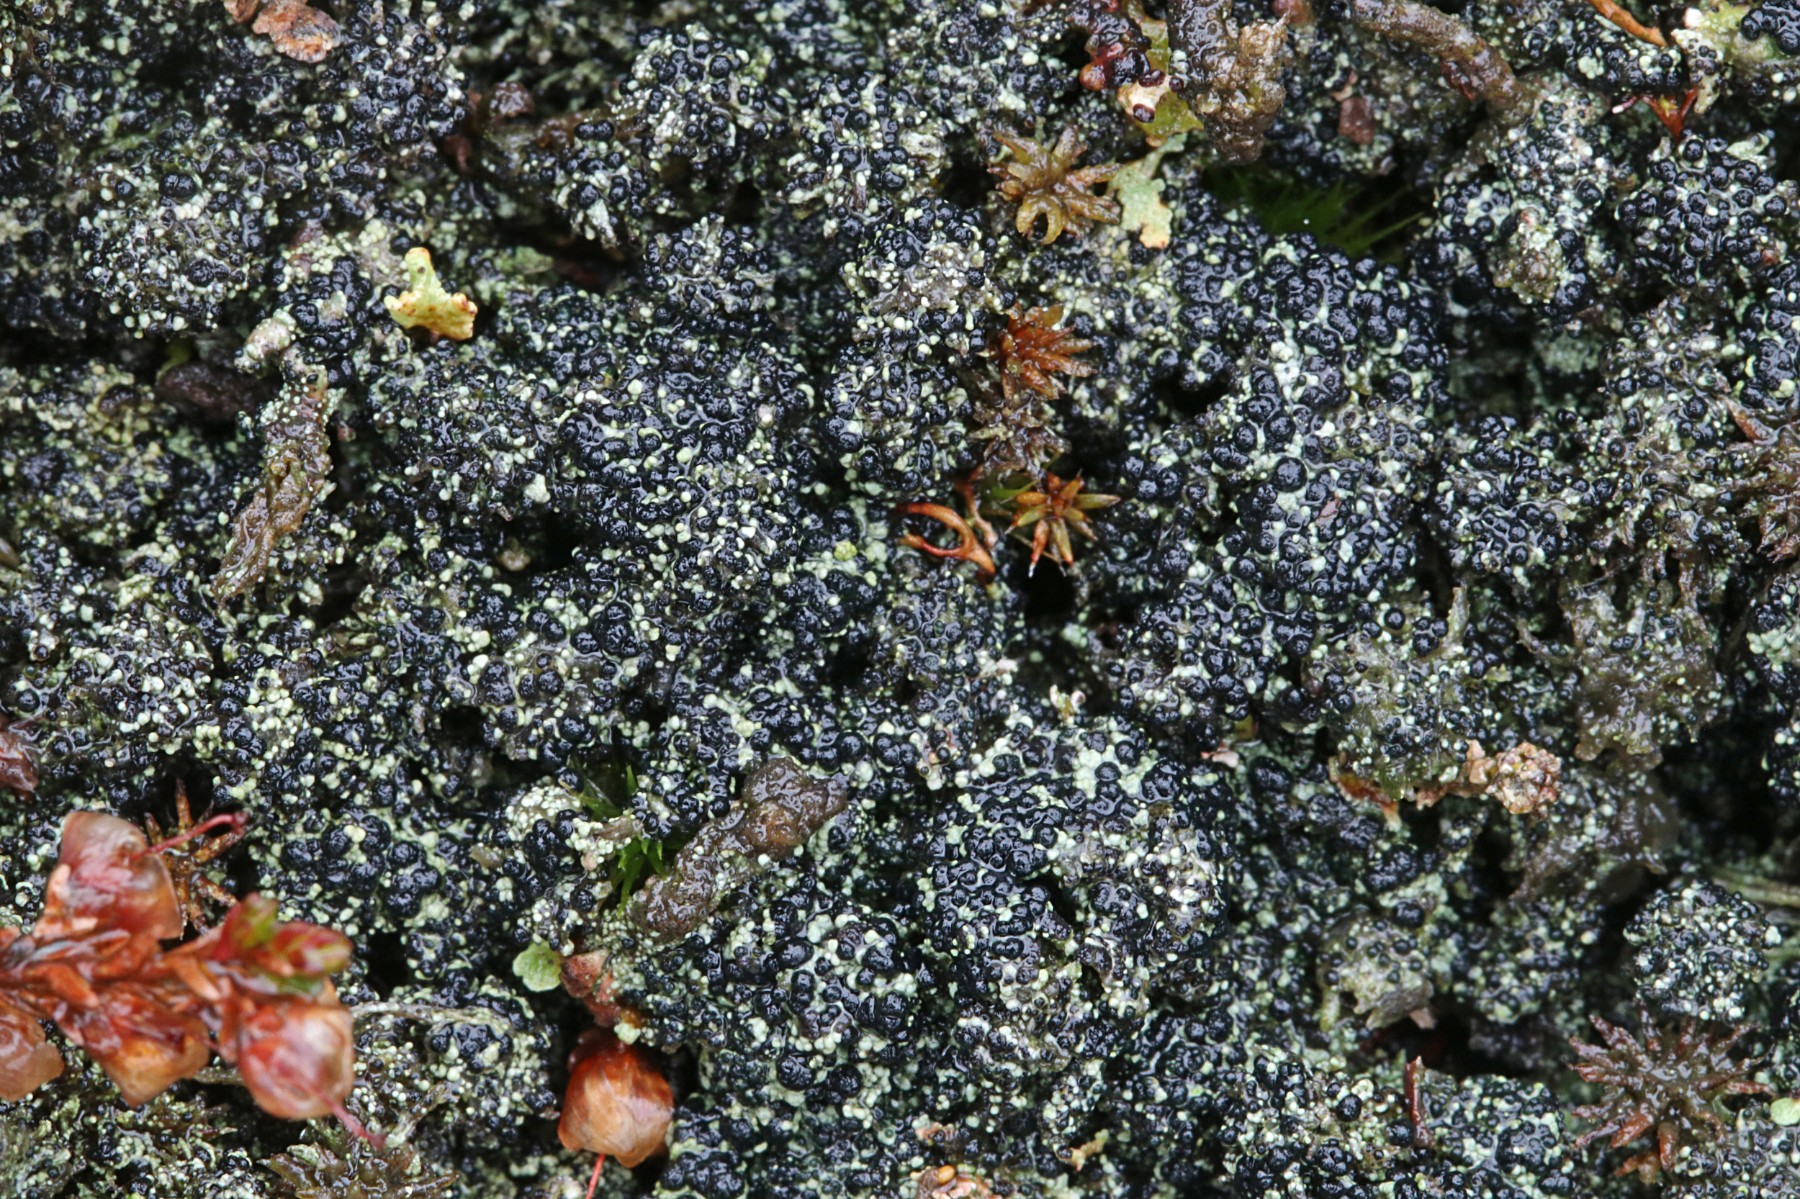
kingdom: Fungi
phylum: Ascomycota
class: Lecanoromycetes
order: Lecanorales
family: Byssolomataceae
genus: Micarea
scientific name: Micarea lignaria
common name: tørve-knaplav
